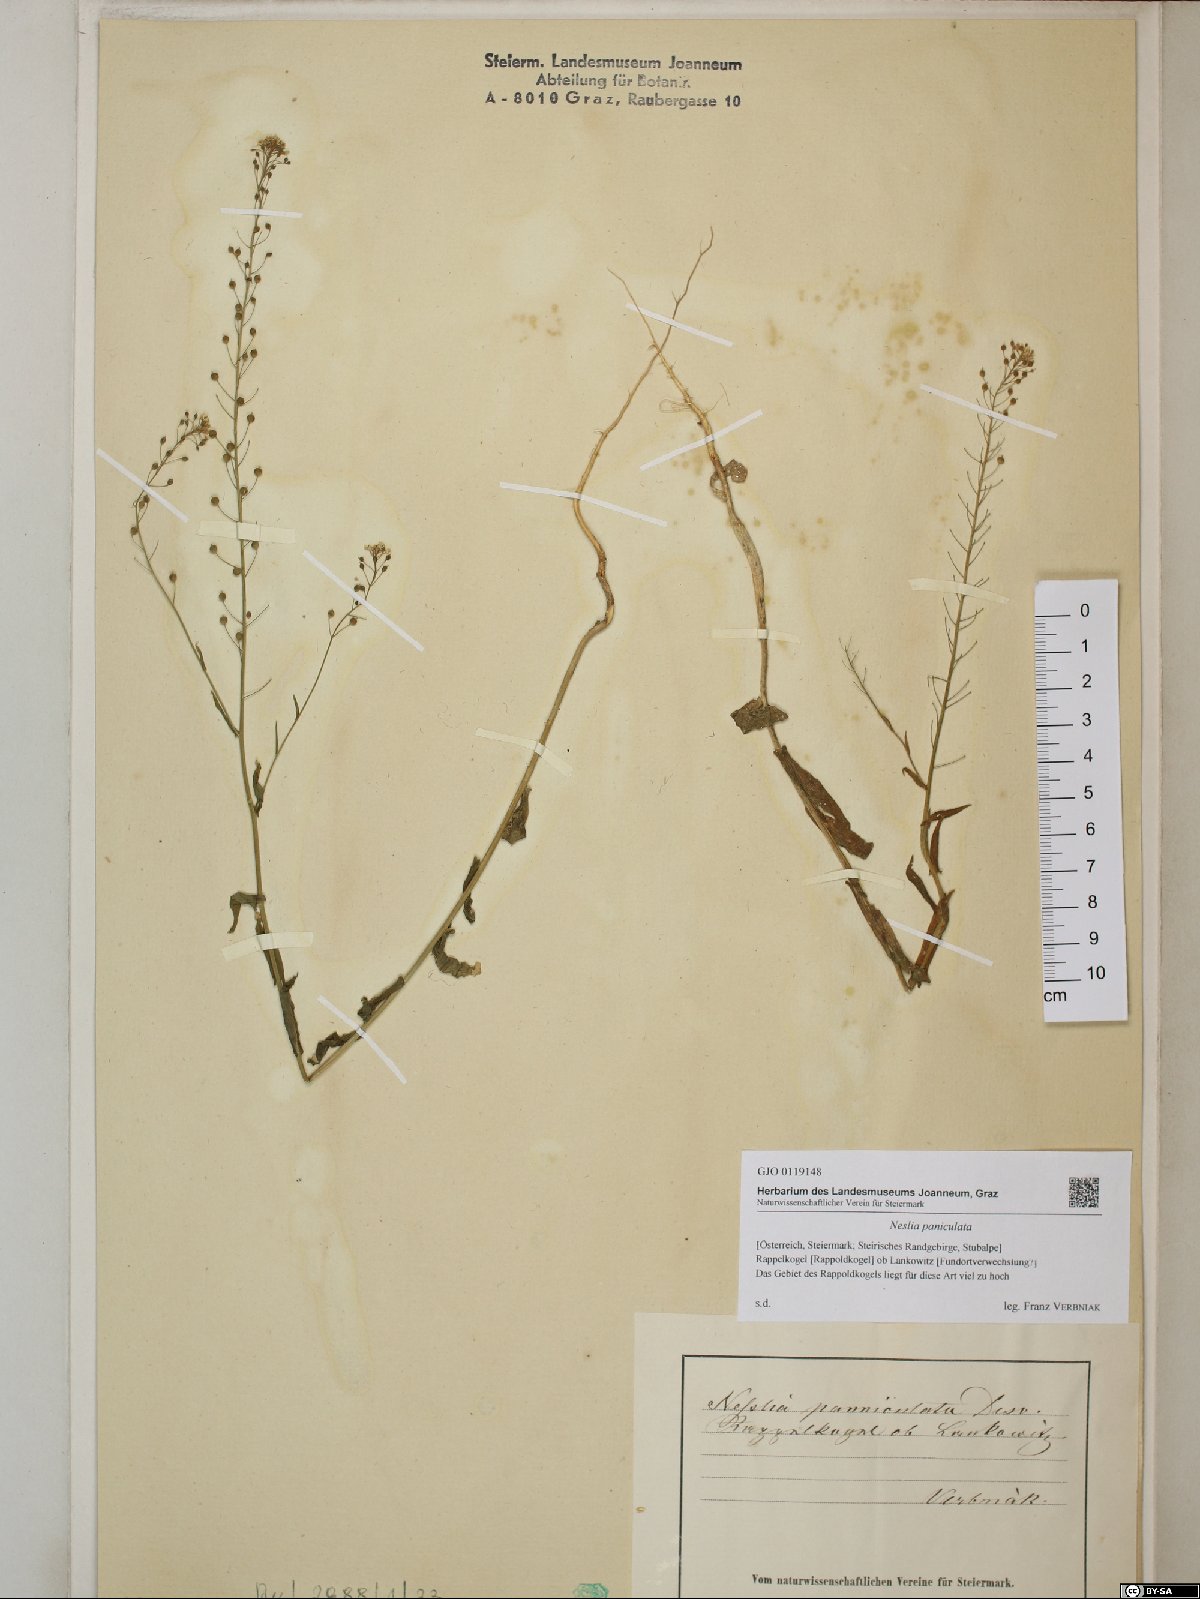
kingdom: Plantae
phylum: Tracheophyta
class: Magnoliopsida
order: Brassicales
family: Brassicaceae
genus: Neslia
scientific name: Neslia paniculata
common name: Ball mustard
